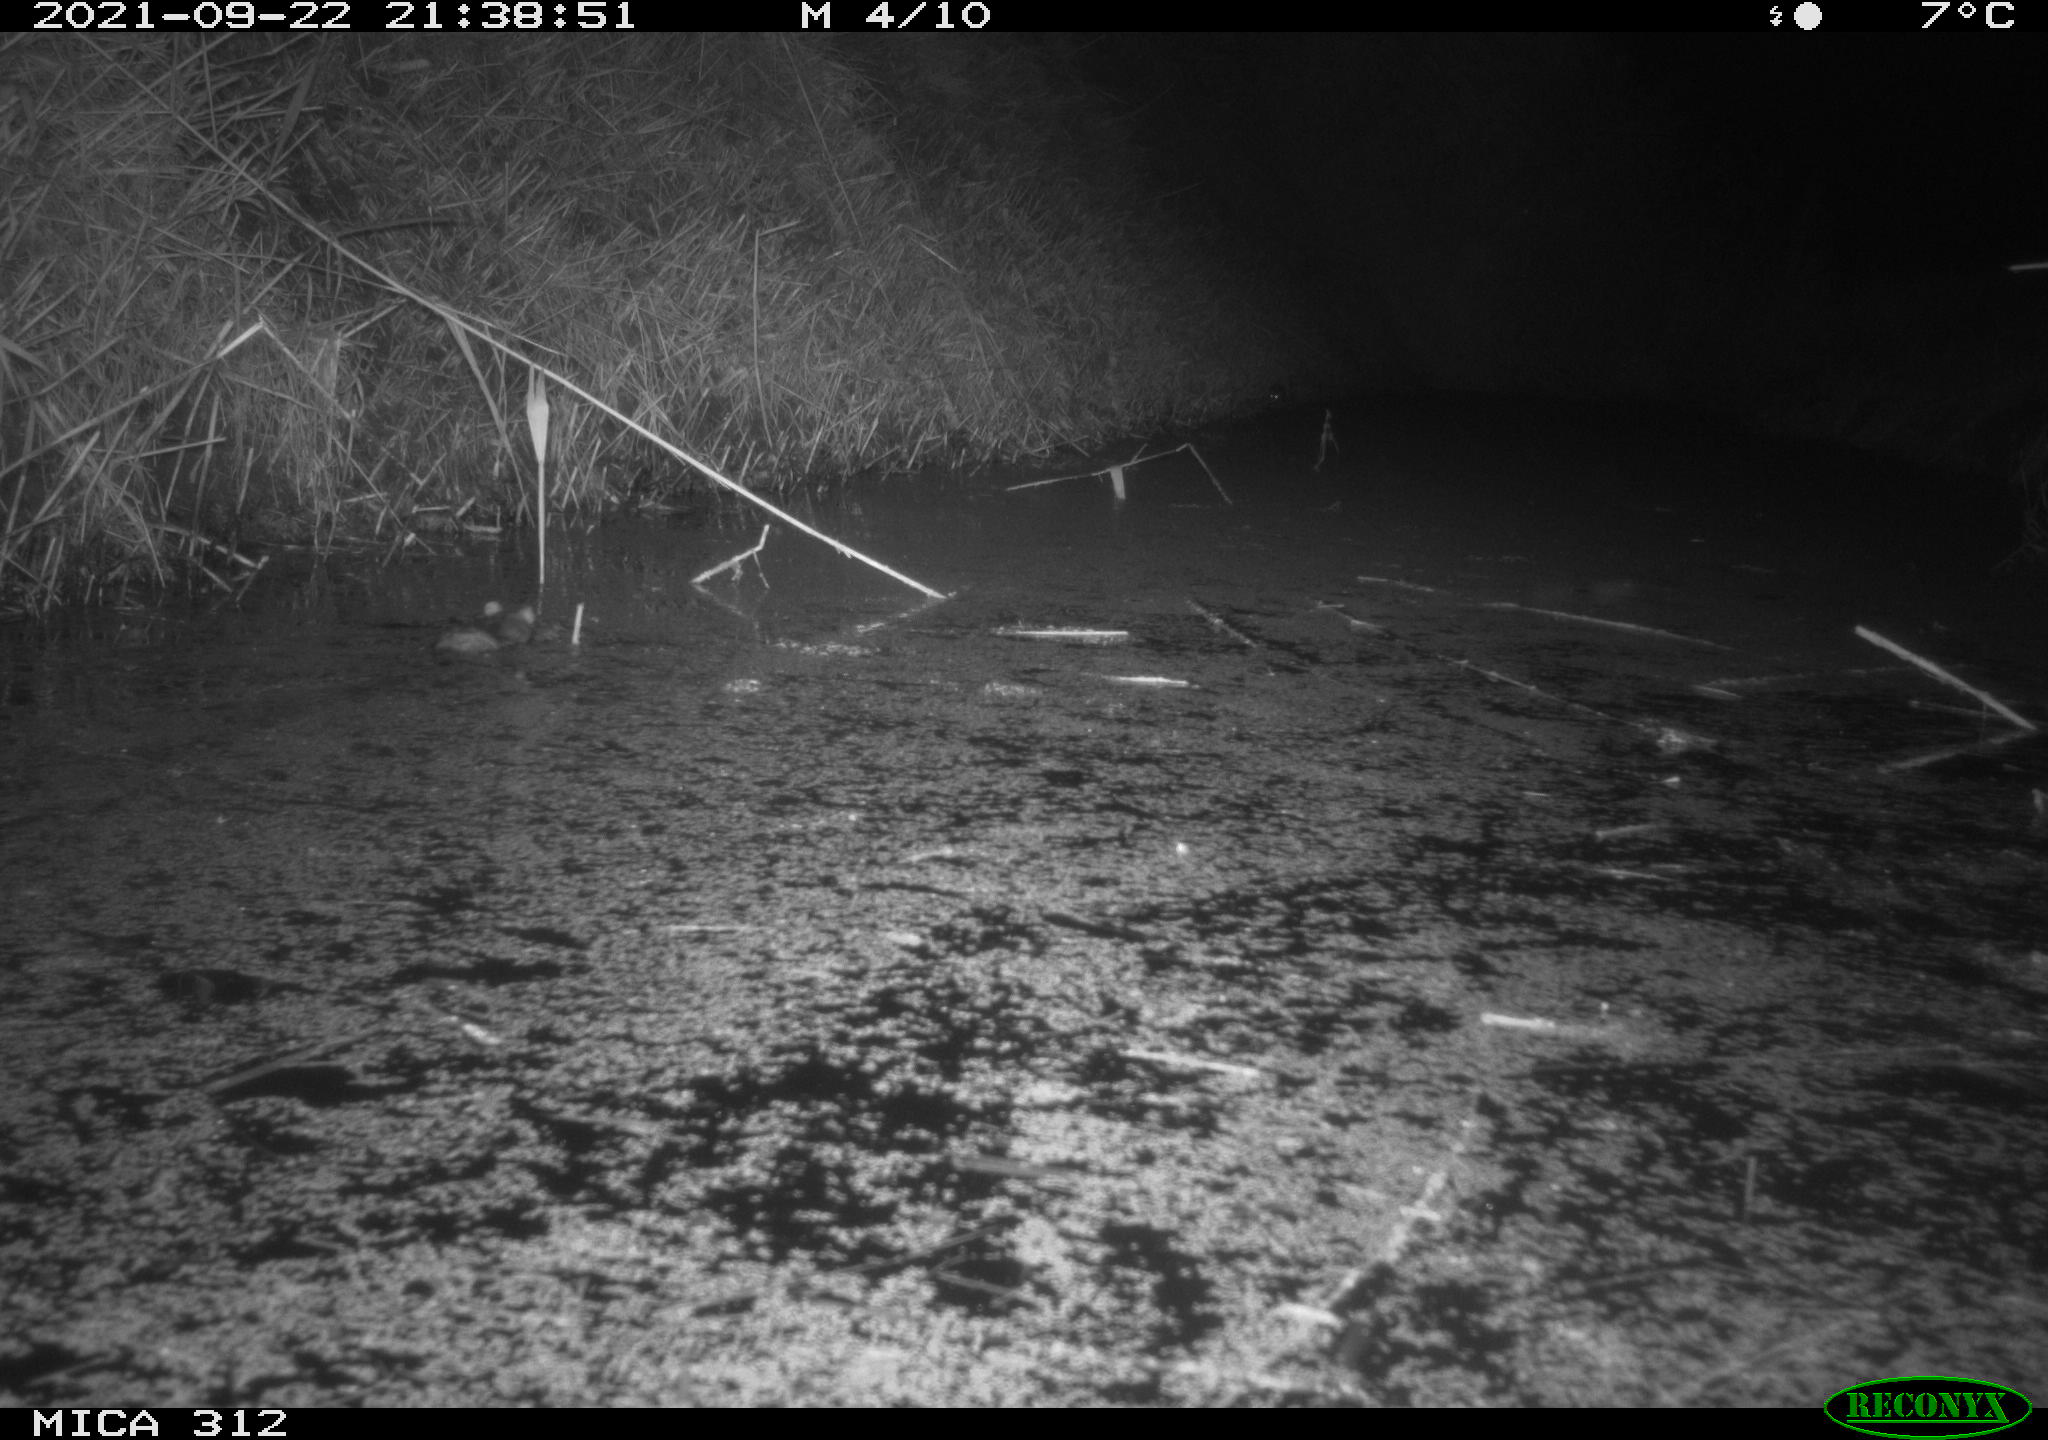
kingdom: Animalia
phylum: Chordata
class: Mammalia
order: Rodentia
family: Muridae
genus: Rattus
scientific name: Rattus norvegicus
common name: Brown rat
